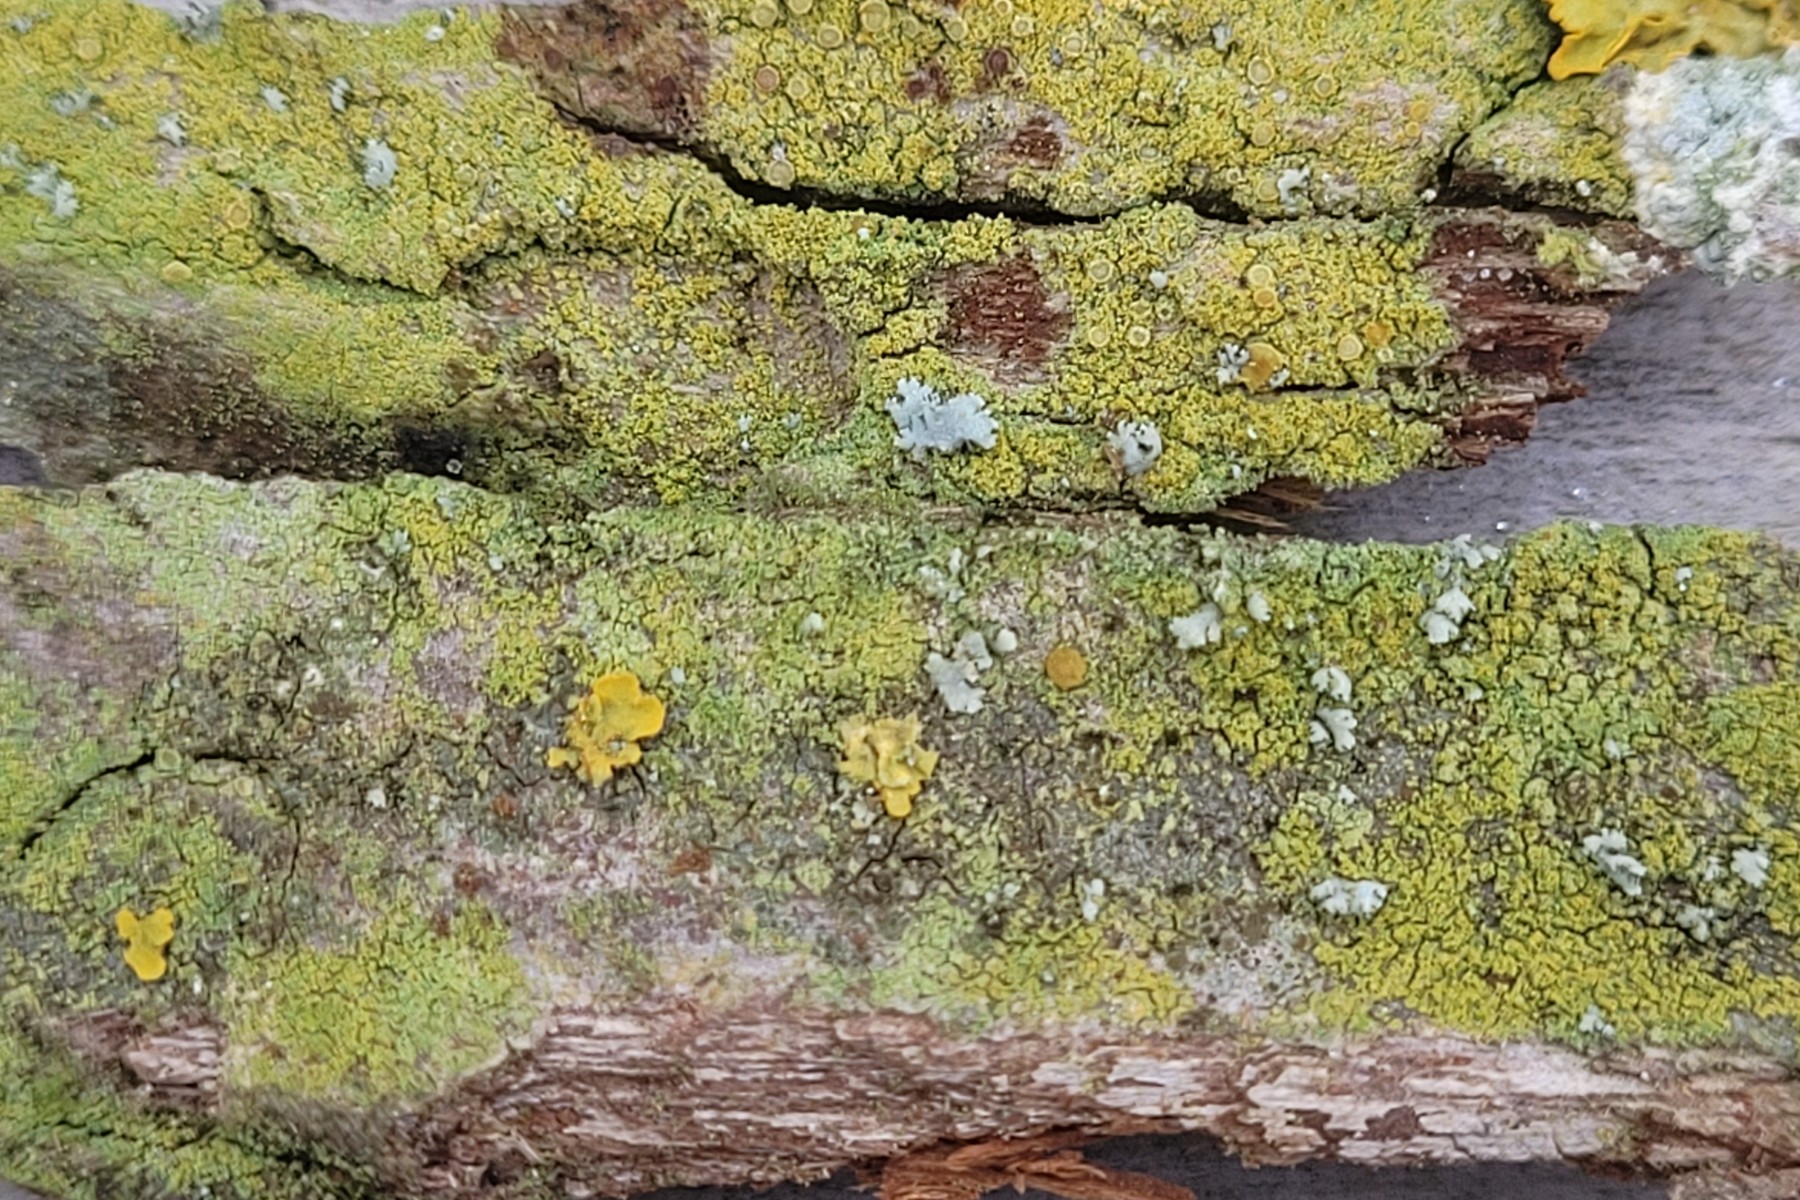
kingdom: Fungi
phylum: Ascomycota
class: Lecanoromycetes
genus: Scythioria
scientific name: Scythioria phlogina
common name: flammet orangelav
